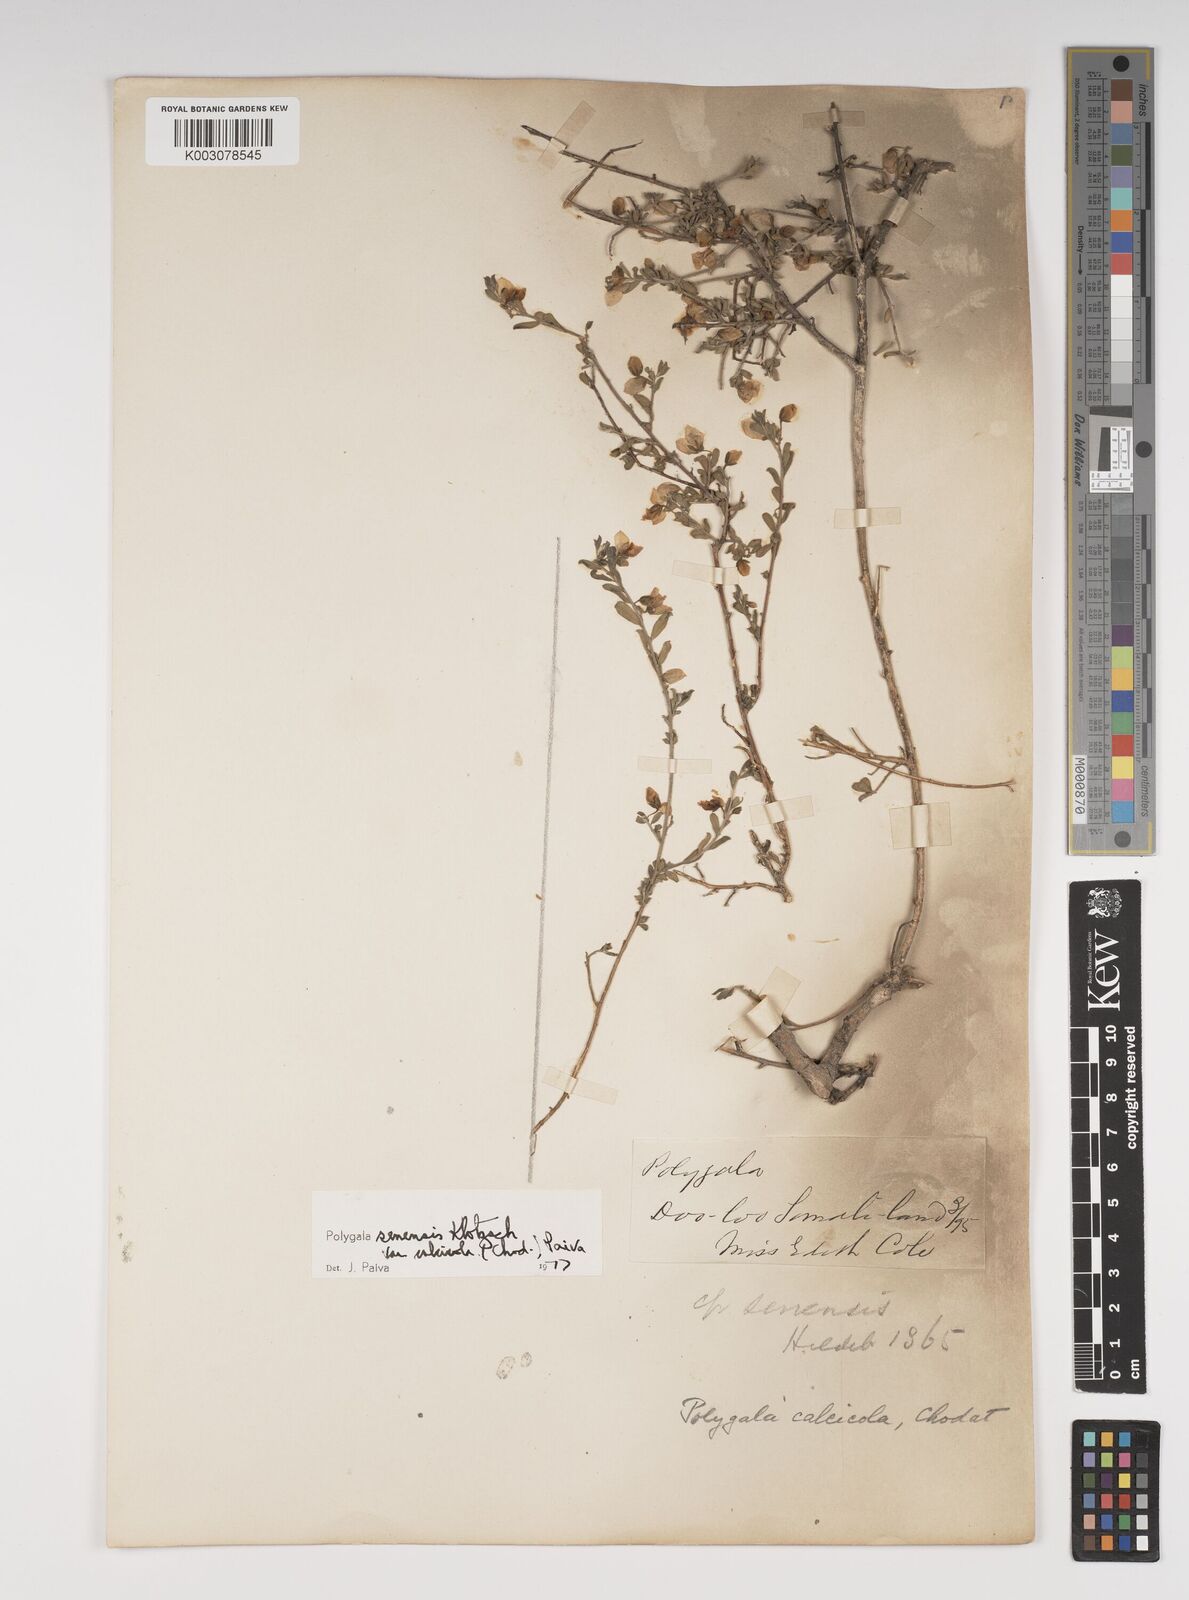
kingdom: Plantae
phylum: Tracheophyta
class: Magnoliopsida
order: Fabales
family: Polygalaceae
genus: Polygala
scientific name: Polygala obtusissima
